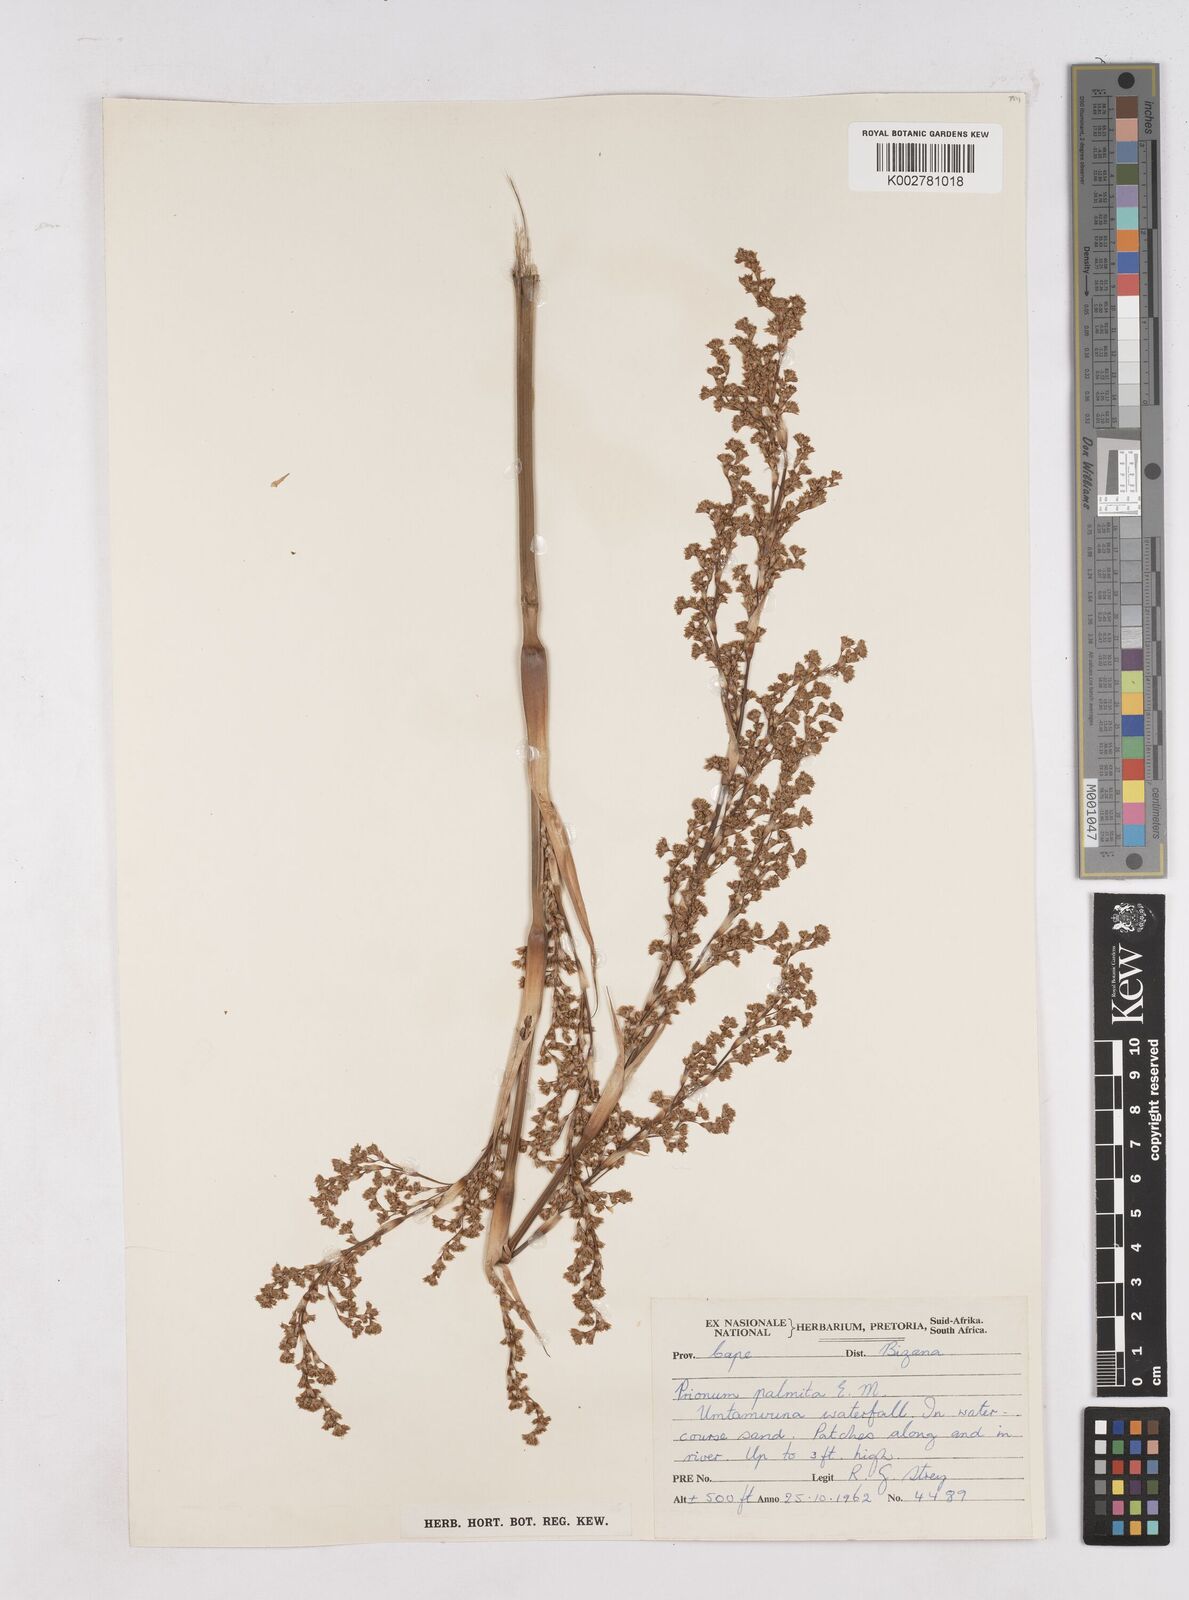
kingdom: Plantae
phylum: Tracheophyta
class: Liliopsida
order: Poales
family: Thurniaceae
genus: Prionium
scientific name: Prionium serratum
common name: Palmiet
